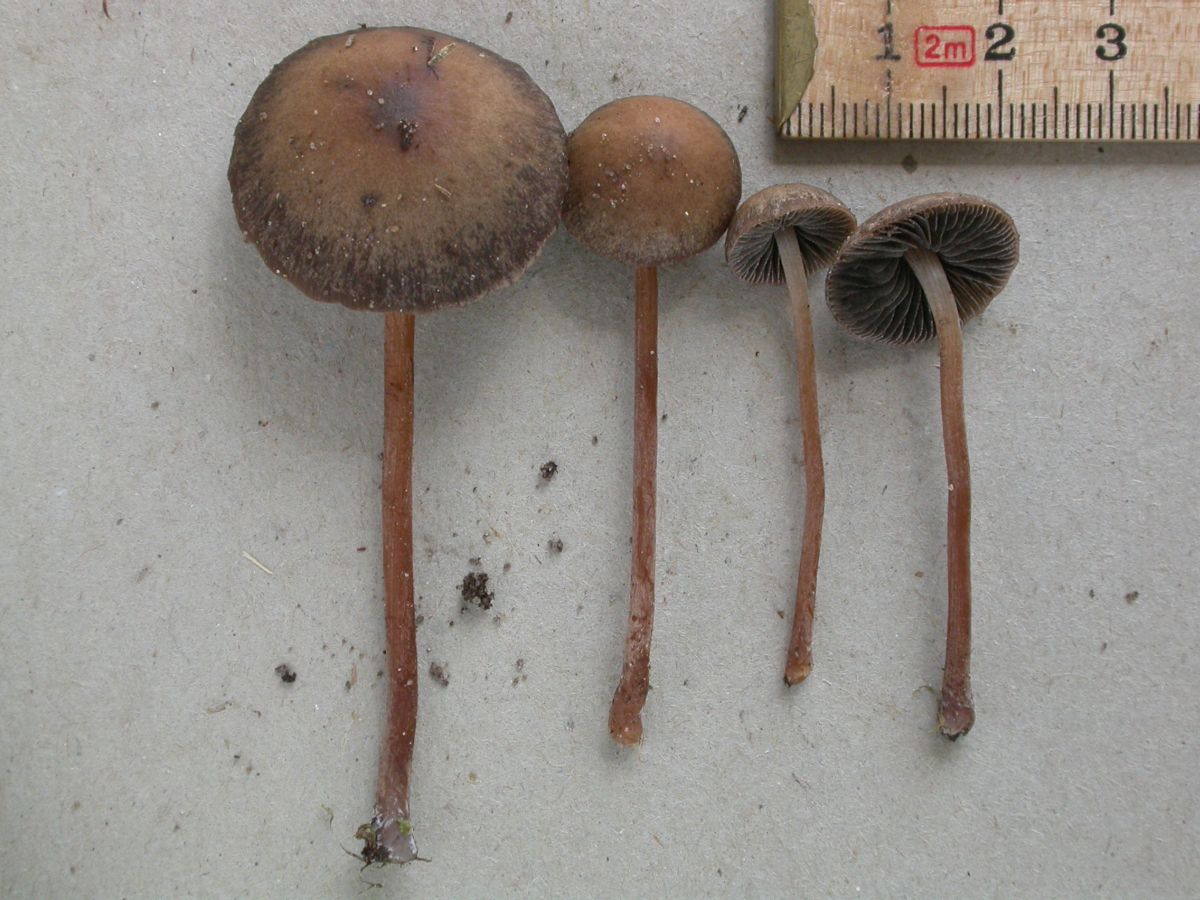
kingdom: Fungi
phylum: Basidiomycota
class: Agaricomycetes
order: Agaricales
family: Bolbitiaceae
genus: Panaeolus
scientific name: Panaeolus fimicola
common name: tidlig glanshat
